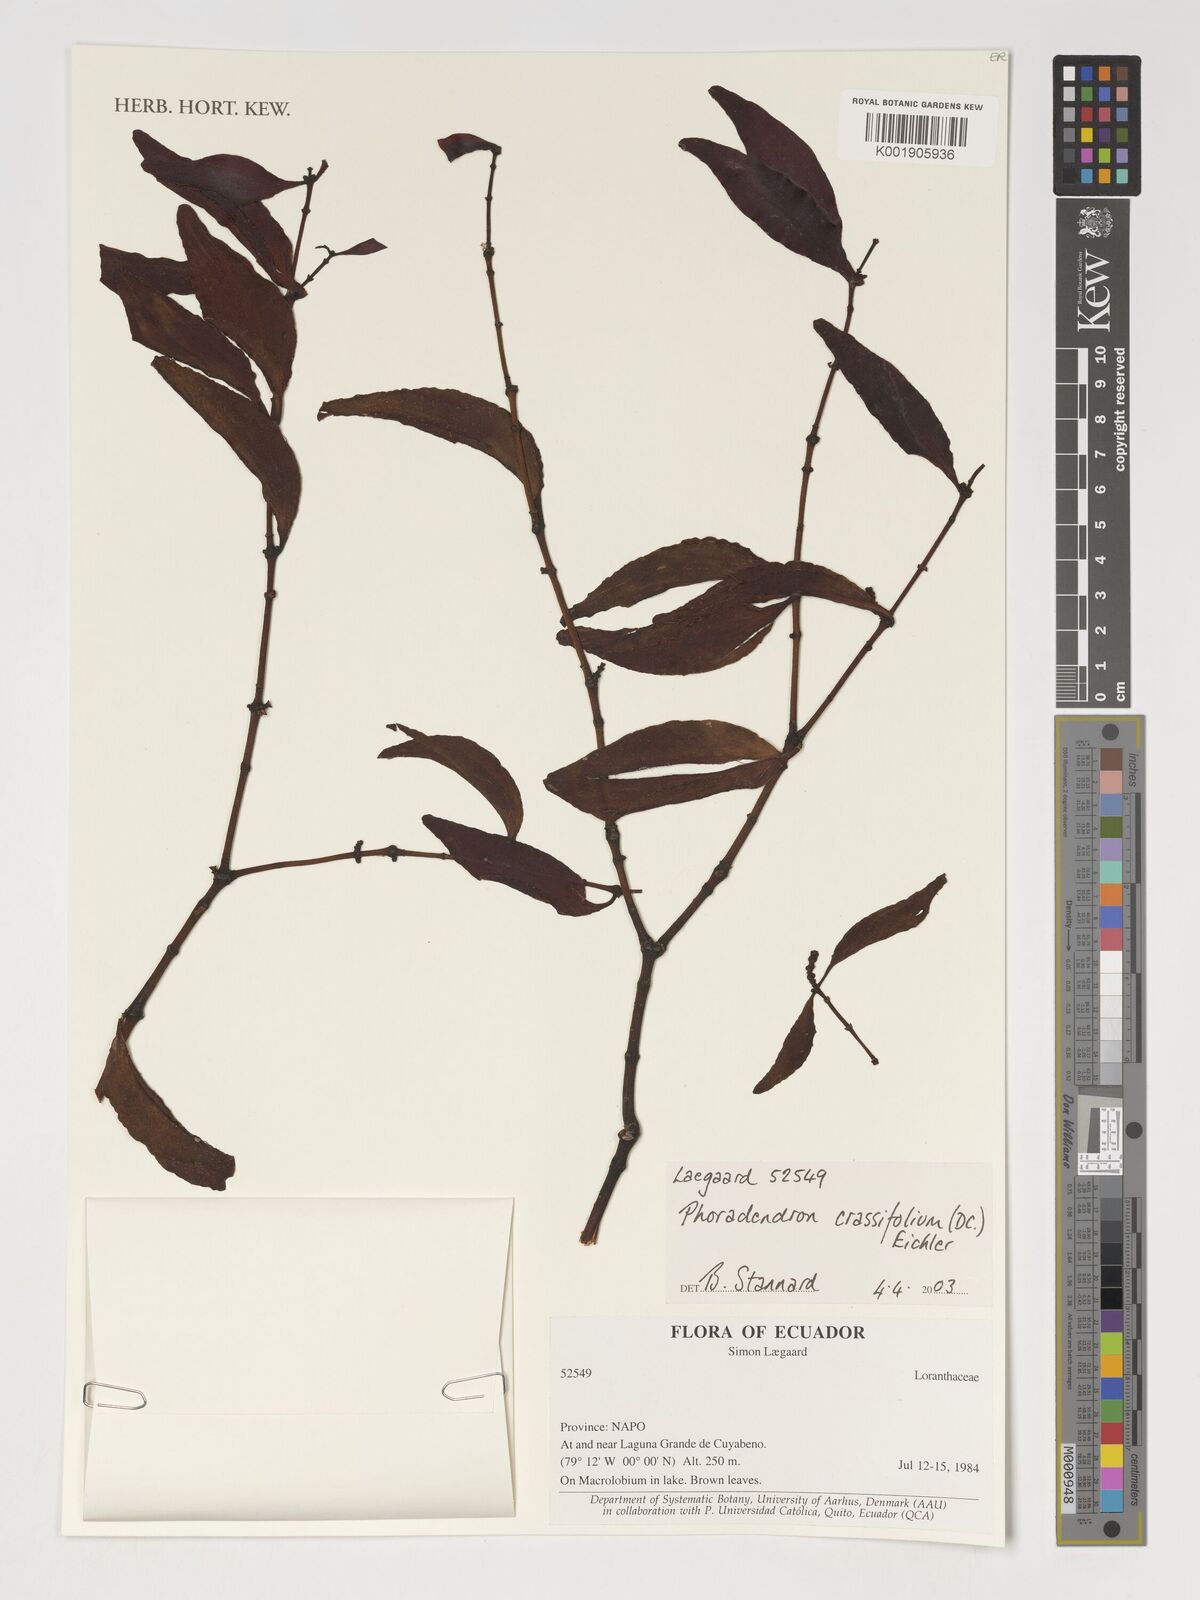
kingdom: Plantae
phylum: Tracheophyta
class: Magnoliopsida
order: Santalales
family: Viscaceae
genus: Phoradendron
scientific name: Phoradendron crassifolium
